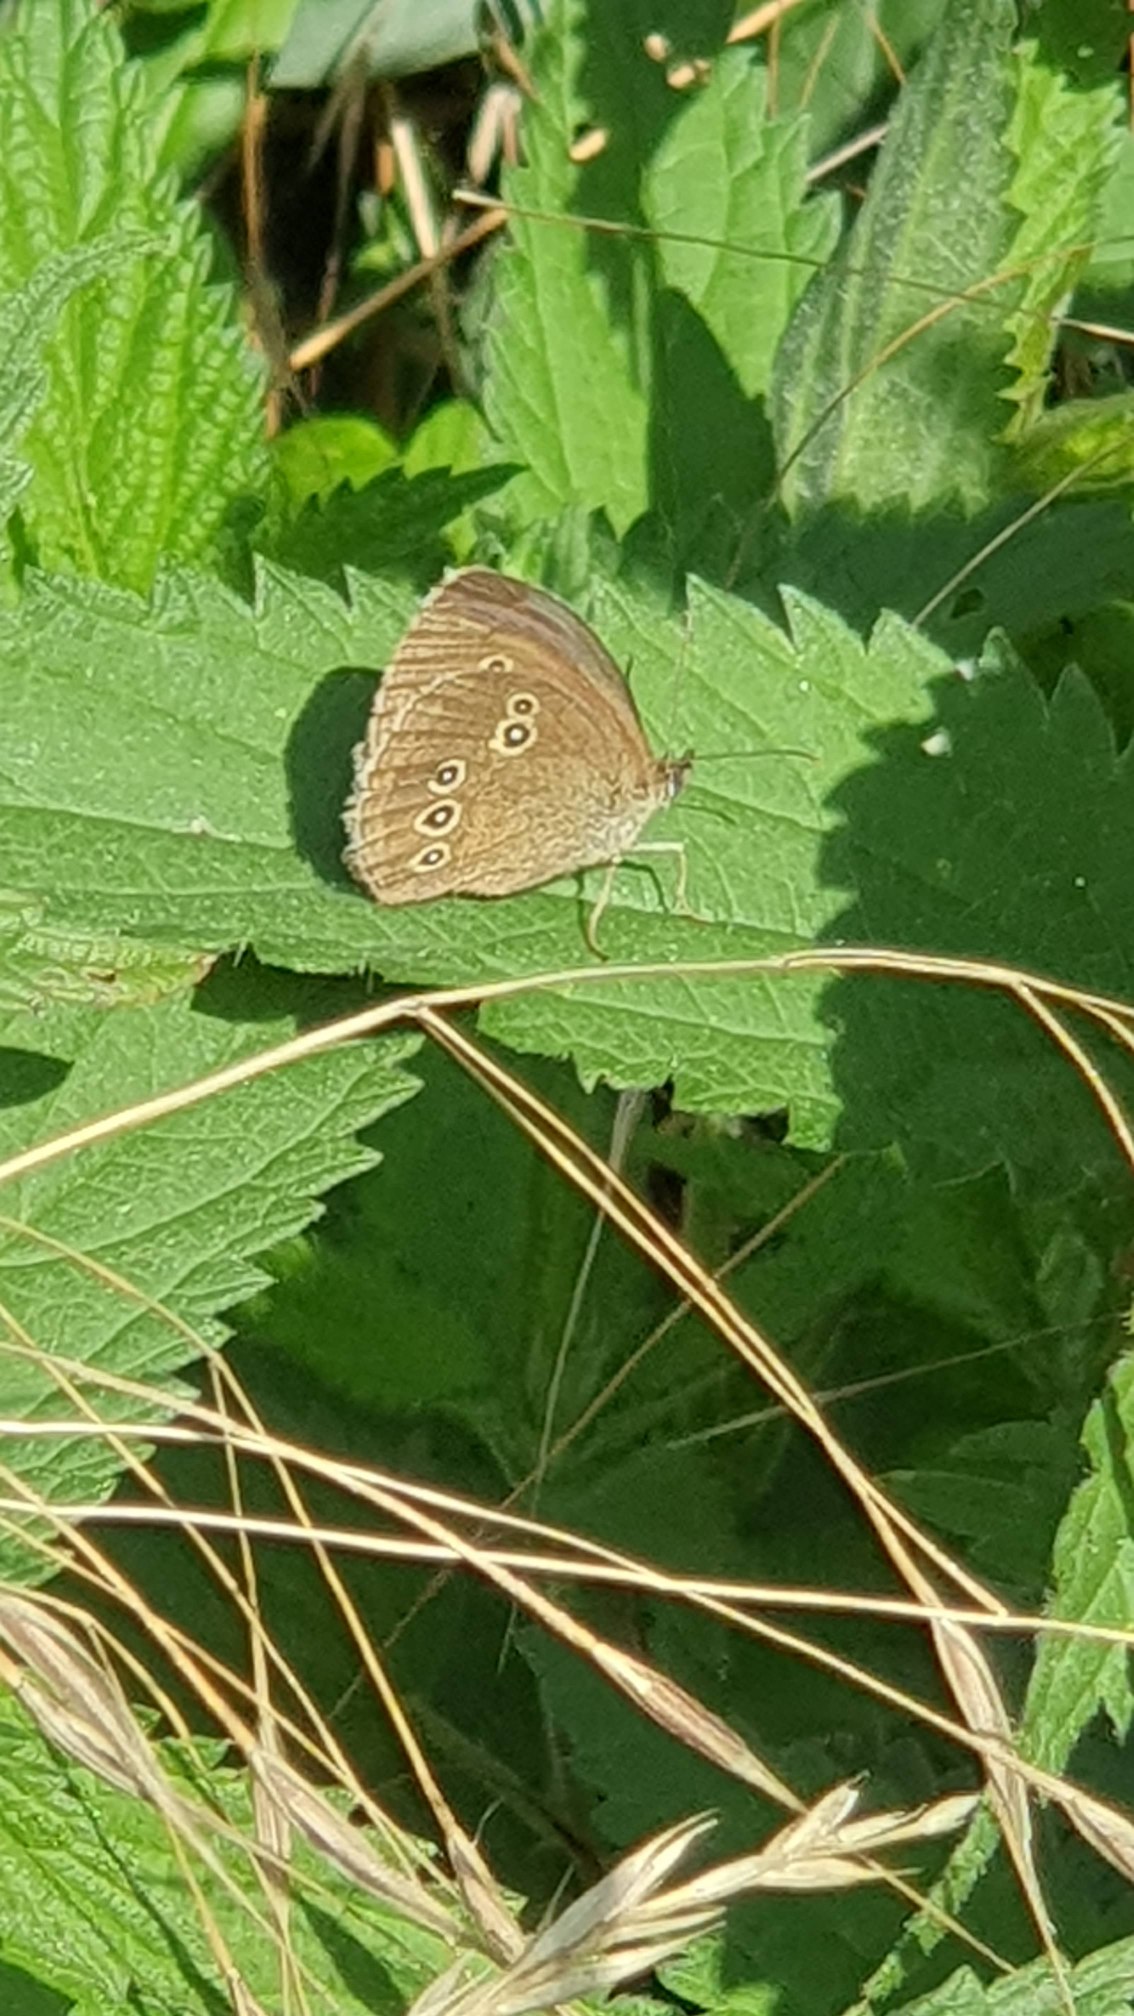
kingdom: Animalia
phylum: Arthropoda
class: Insecta
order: Lepidoptera
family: Nymphalidae
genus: Aphantopus
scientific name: Aphantopus hyperantus
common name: Engrandøje
